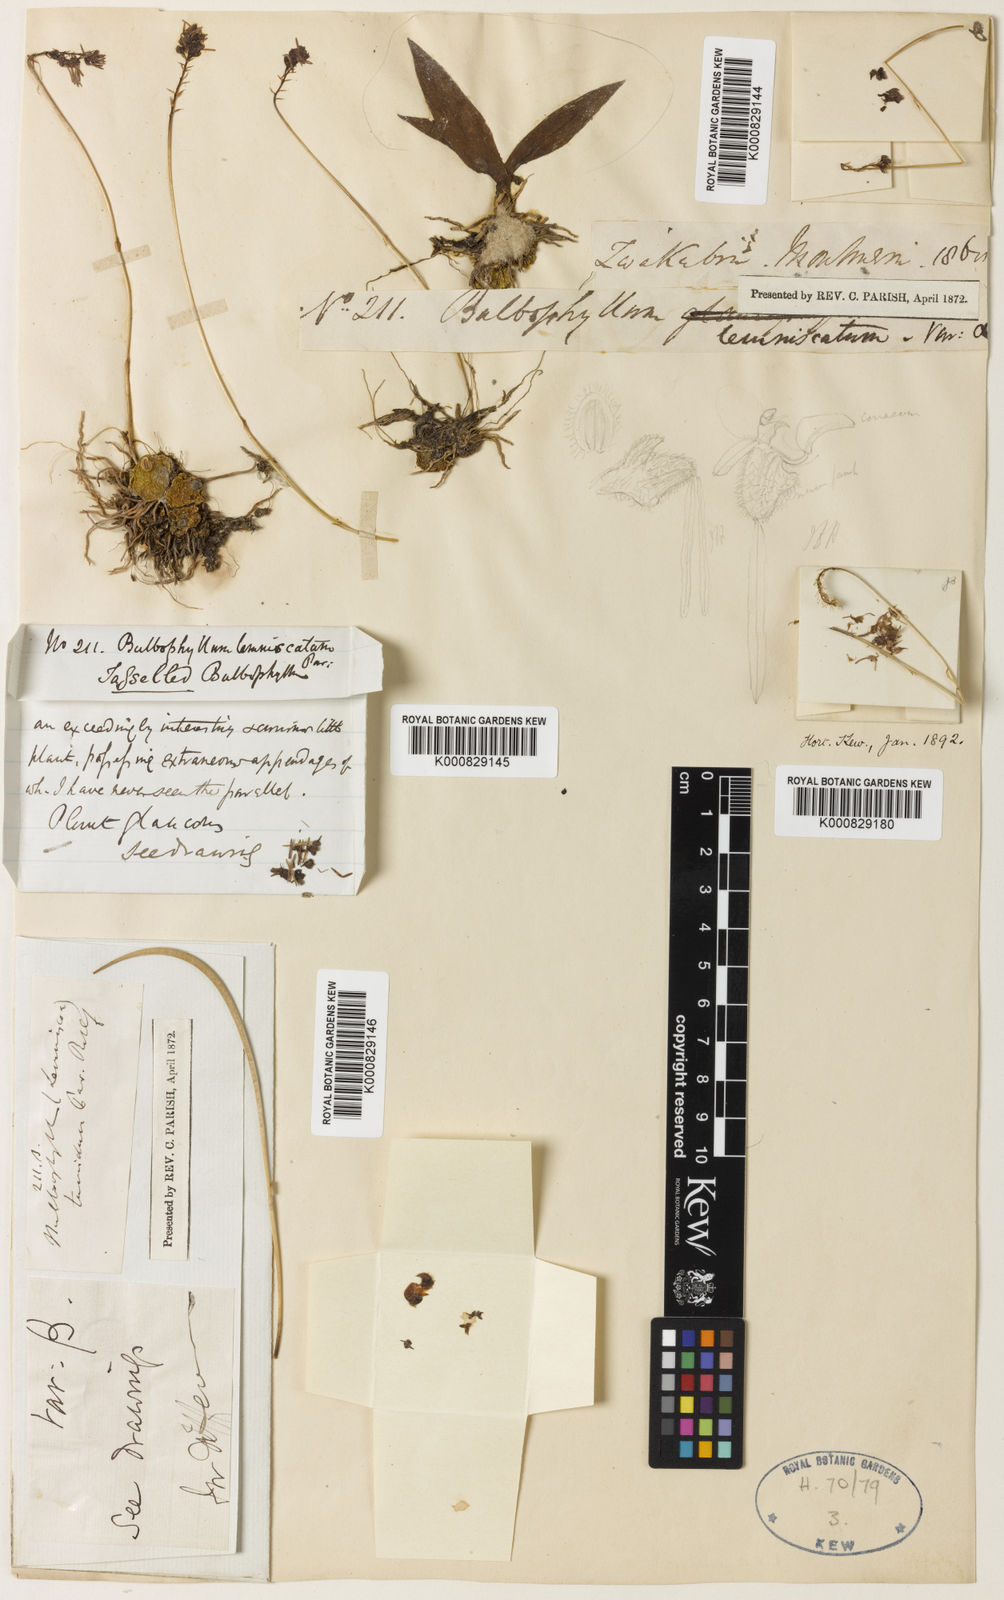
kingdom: Plantae
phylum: Tracheophyta
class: Liliopsida
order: Asparagales
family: Orchidaceae
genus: Bulbophyllum
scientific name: Bulbophyllum lemniscatum
